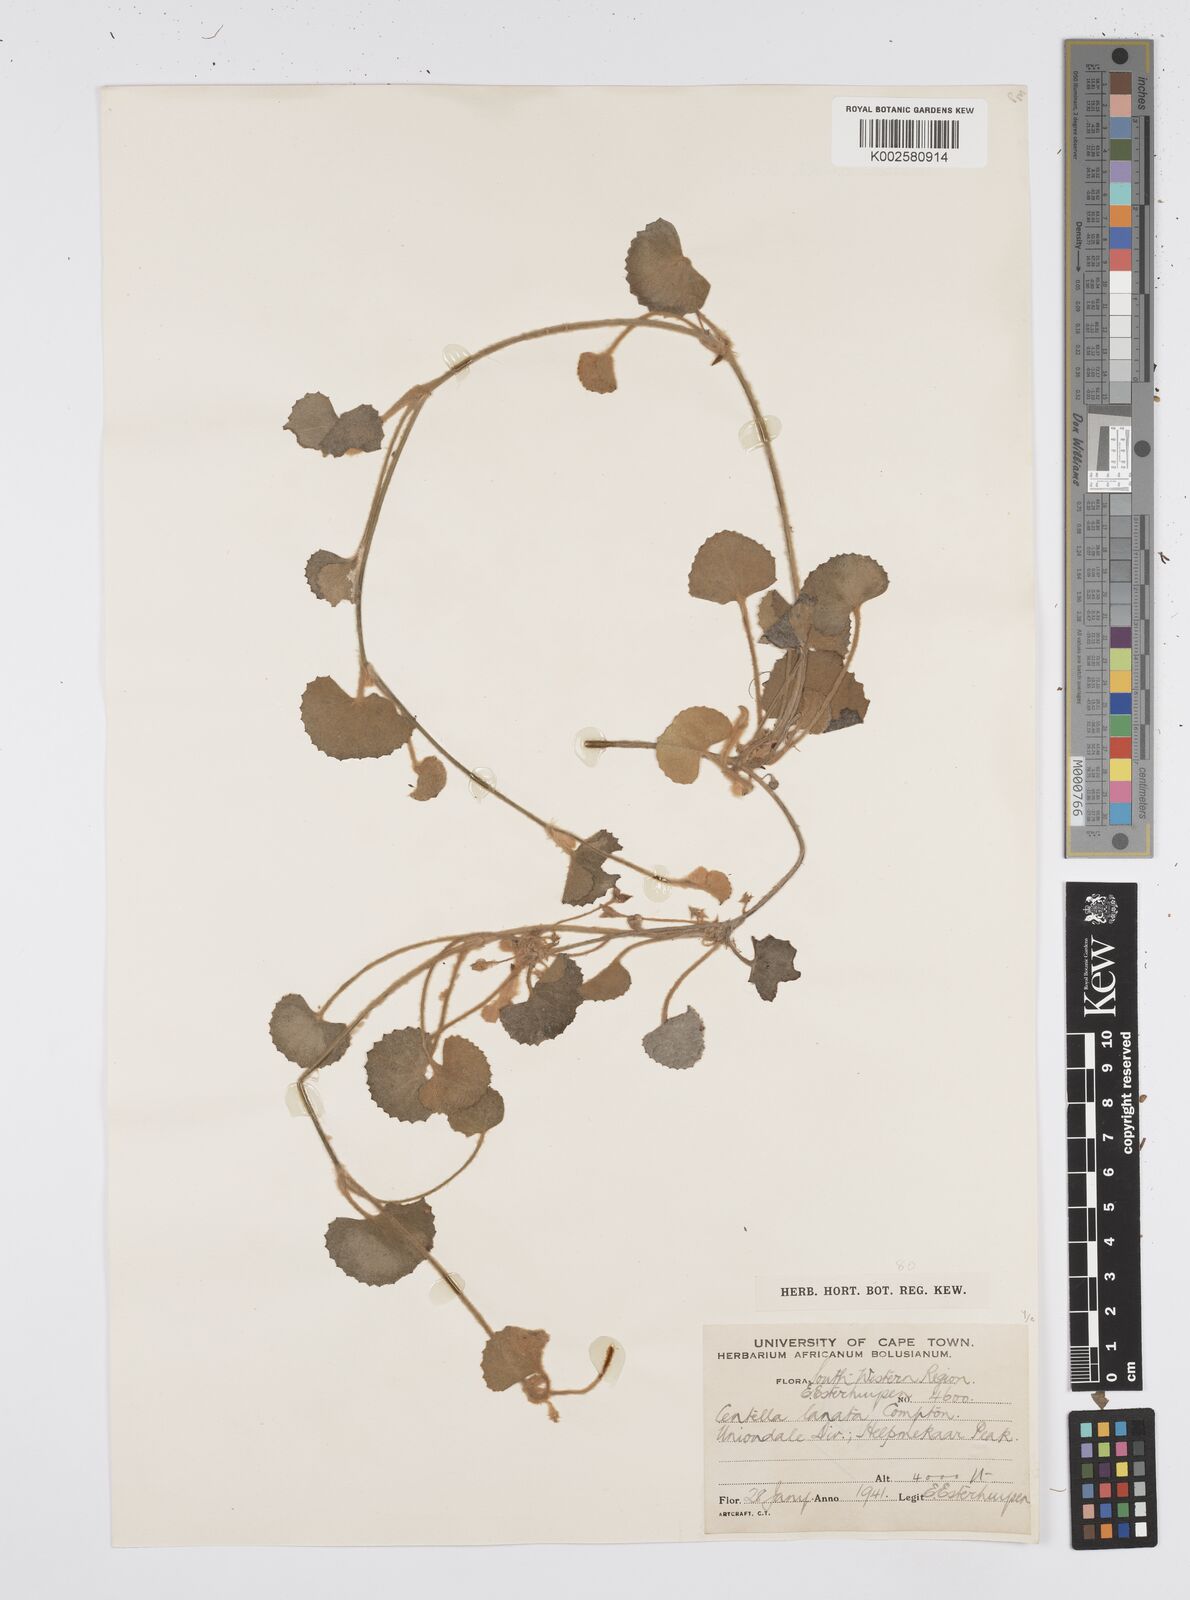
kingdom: Plantae
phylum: Tracheophyta
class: Magnoliopsida
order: Apiales
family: Apiaceae
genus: Centella
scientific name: Centella lanata
